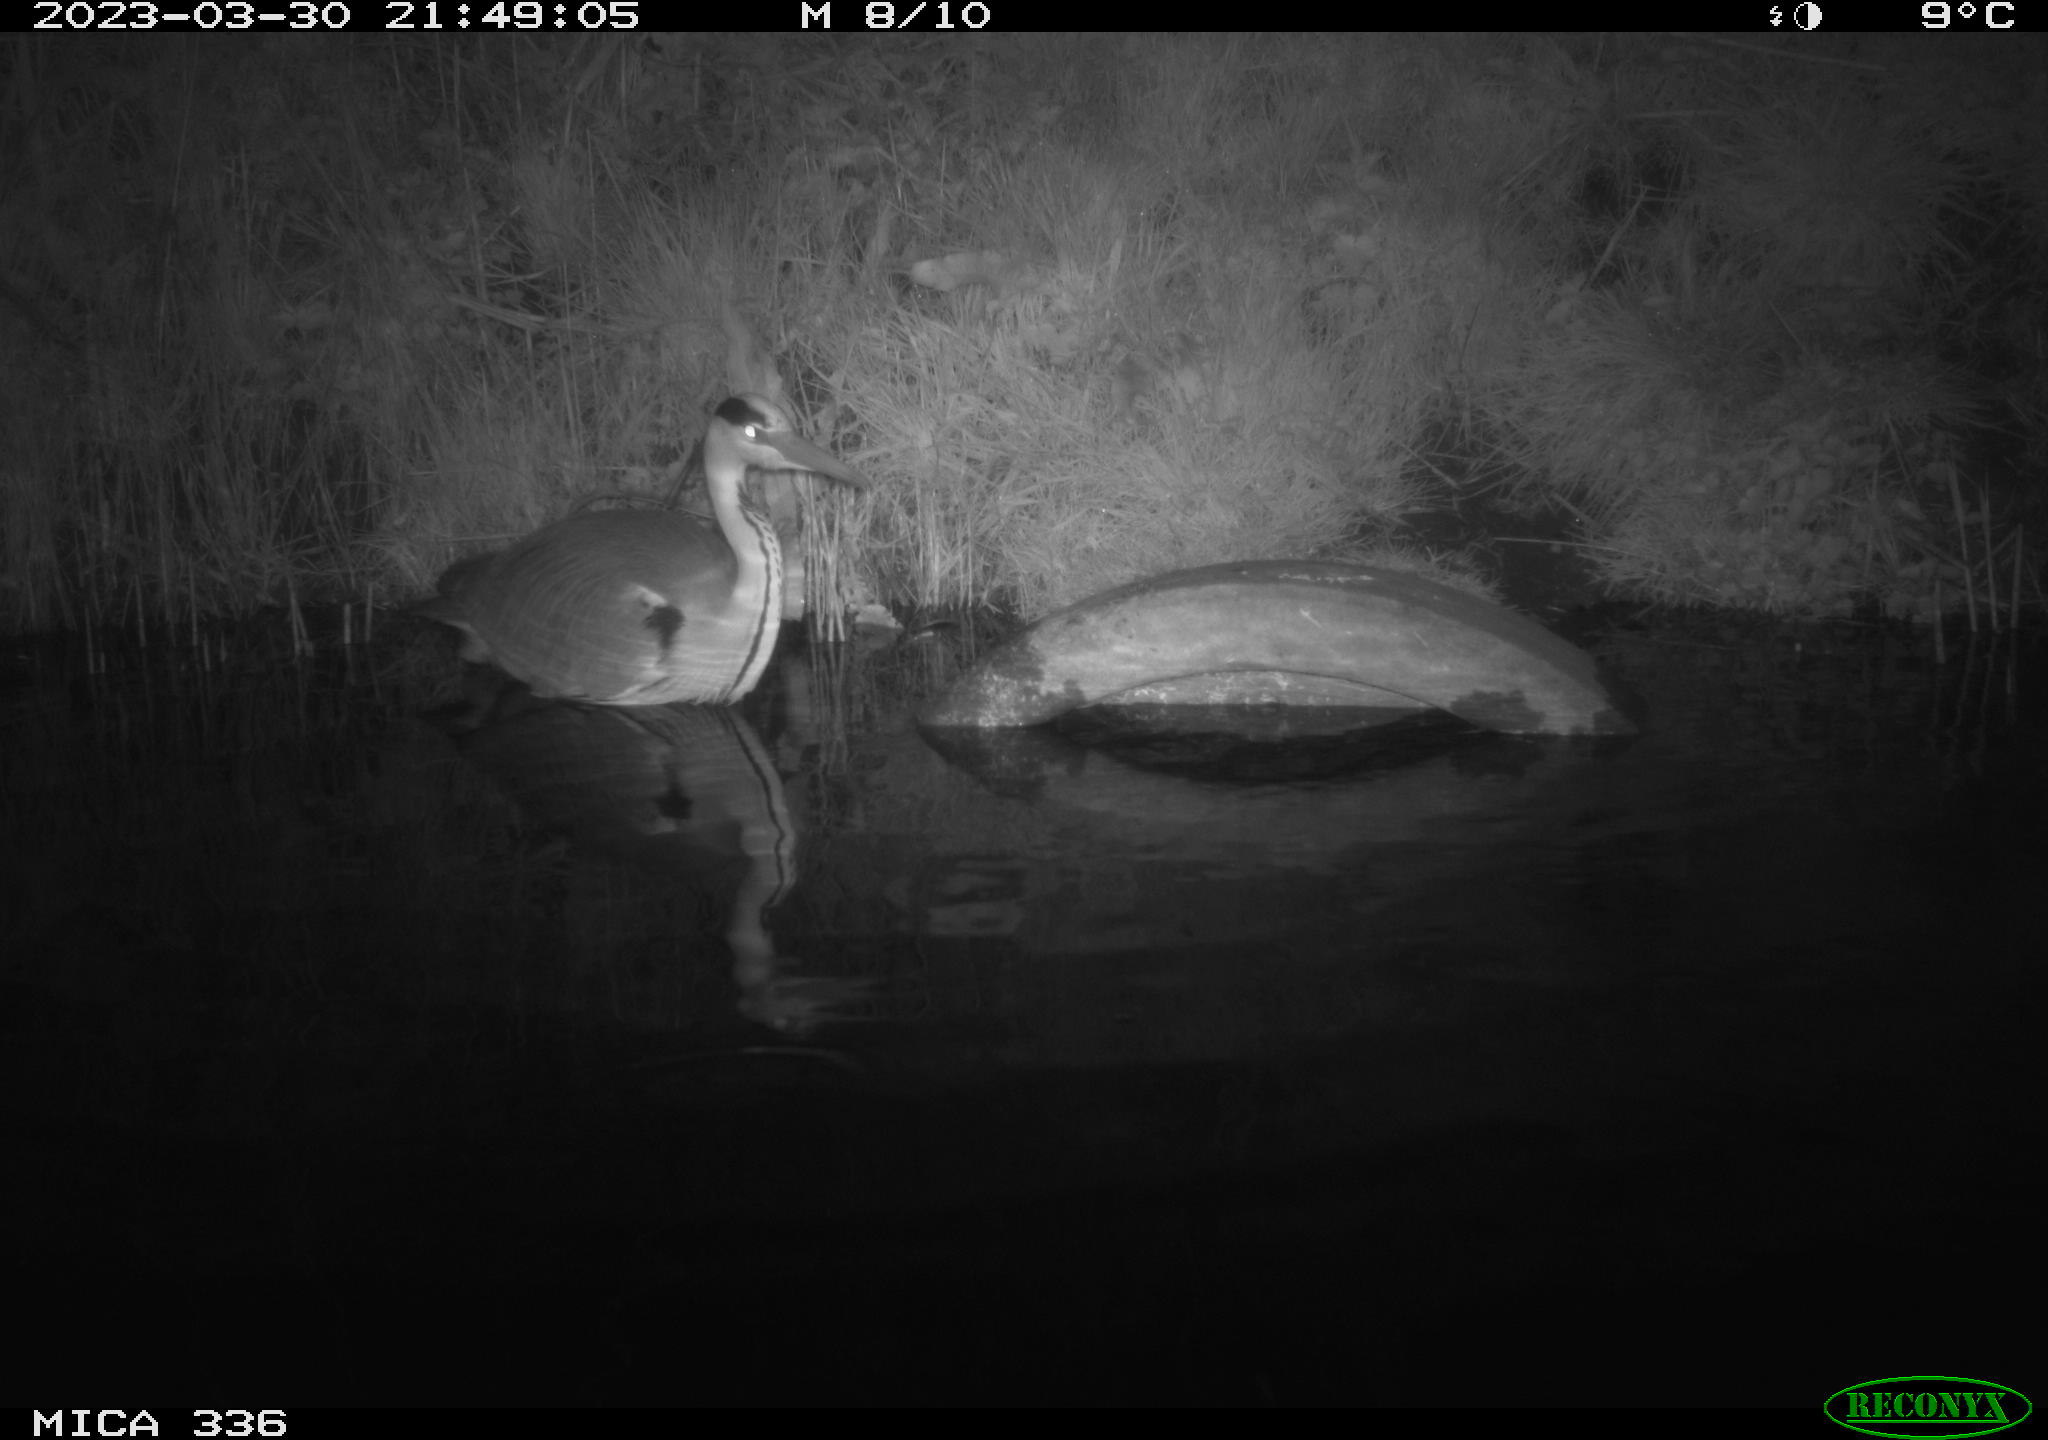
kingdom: Animalia
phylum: Chordata
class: Aves
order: Pelecaniformes
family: Ardeidae
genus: Ardea
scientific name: Ardea
